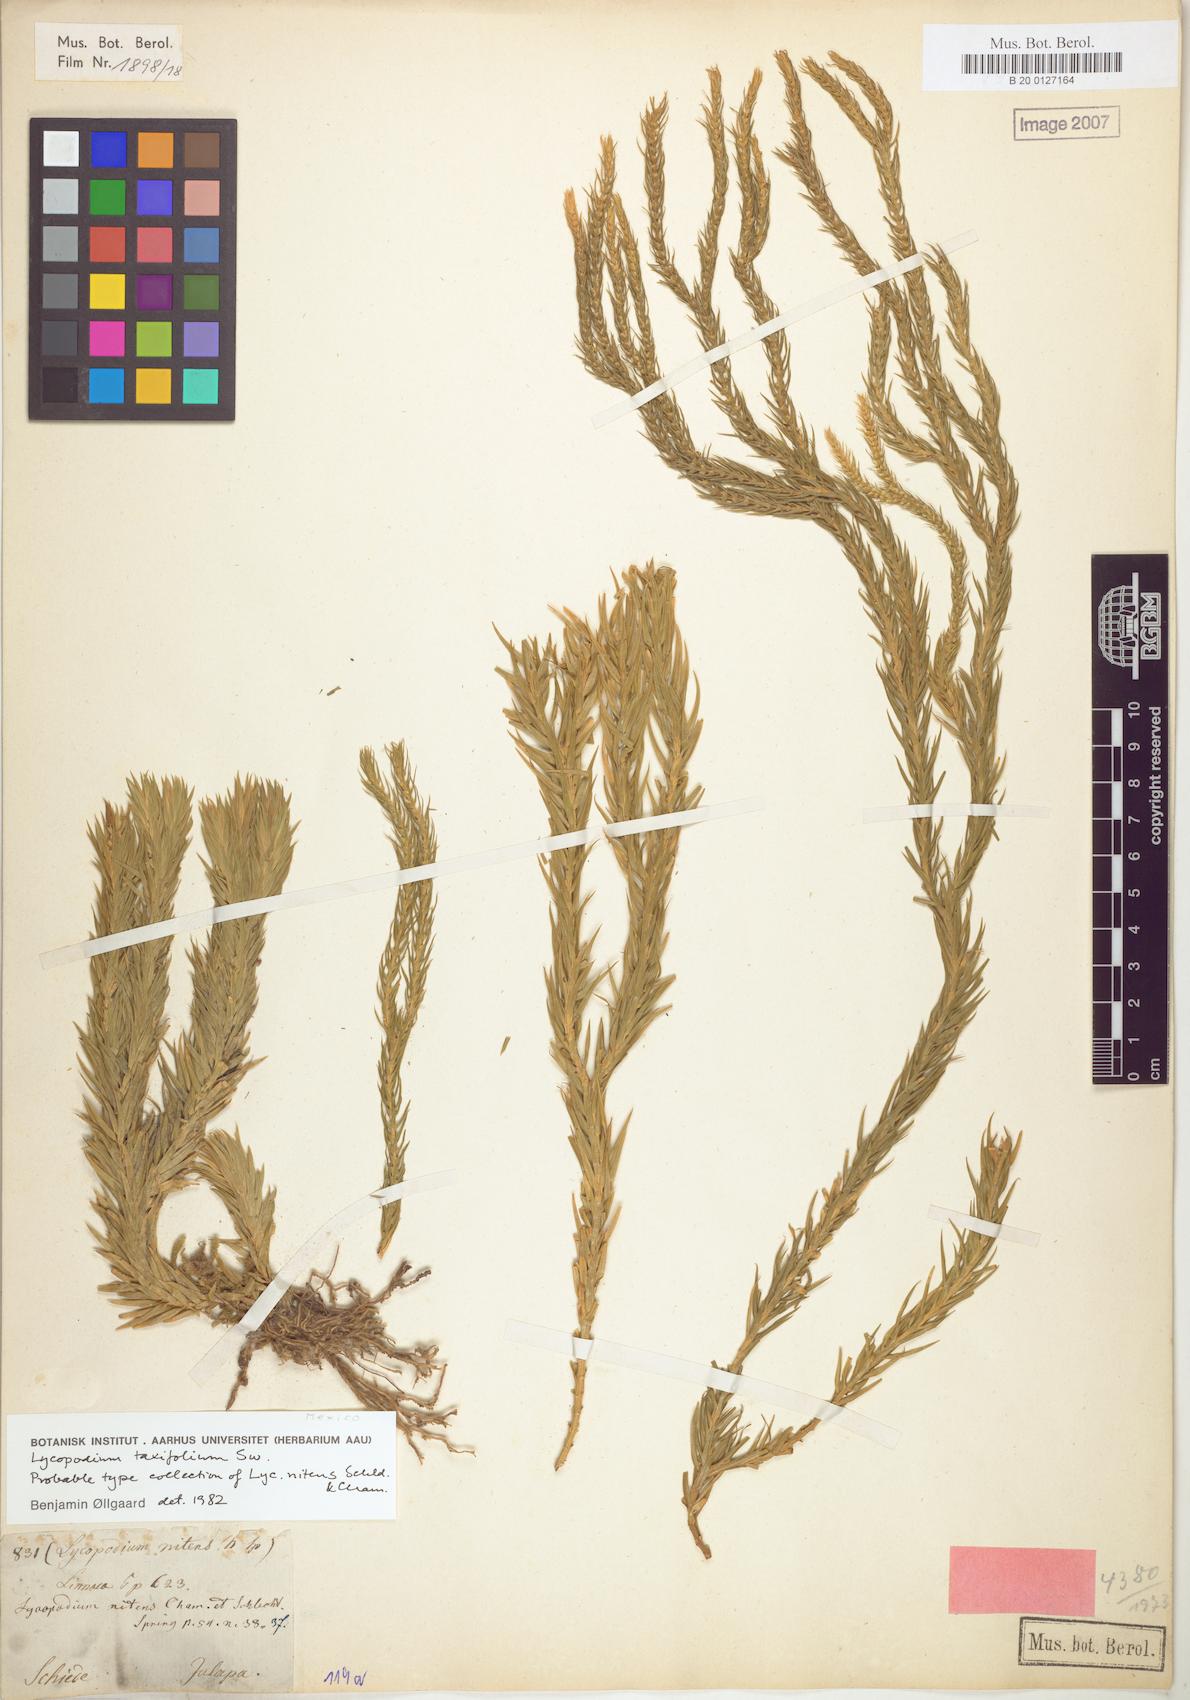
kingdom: Plantae
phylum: Tracheophyta
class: Lycopodiopsida
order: Lycopodiales
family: Lycopodiaceae
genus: Phlegmariurus
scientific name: Phlegmariurus taxifolius
